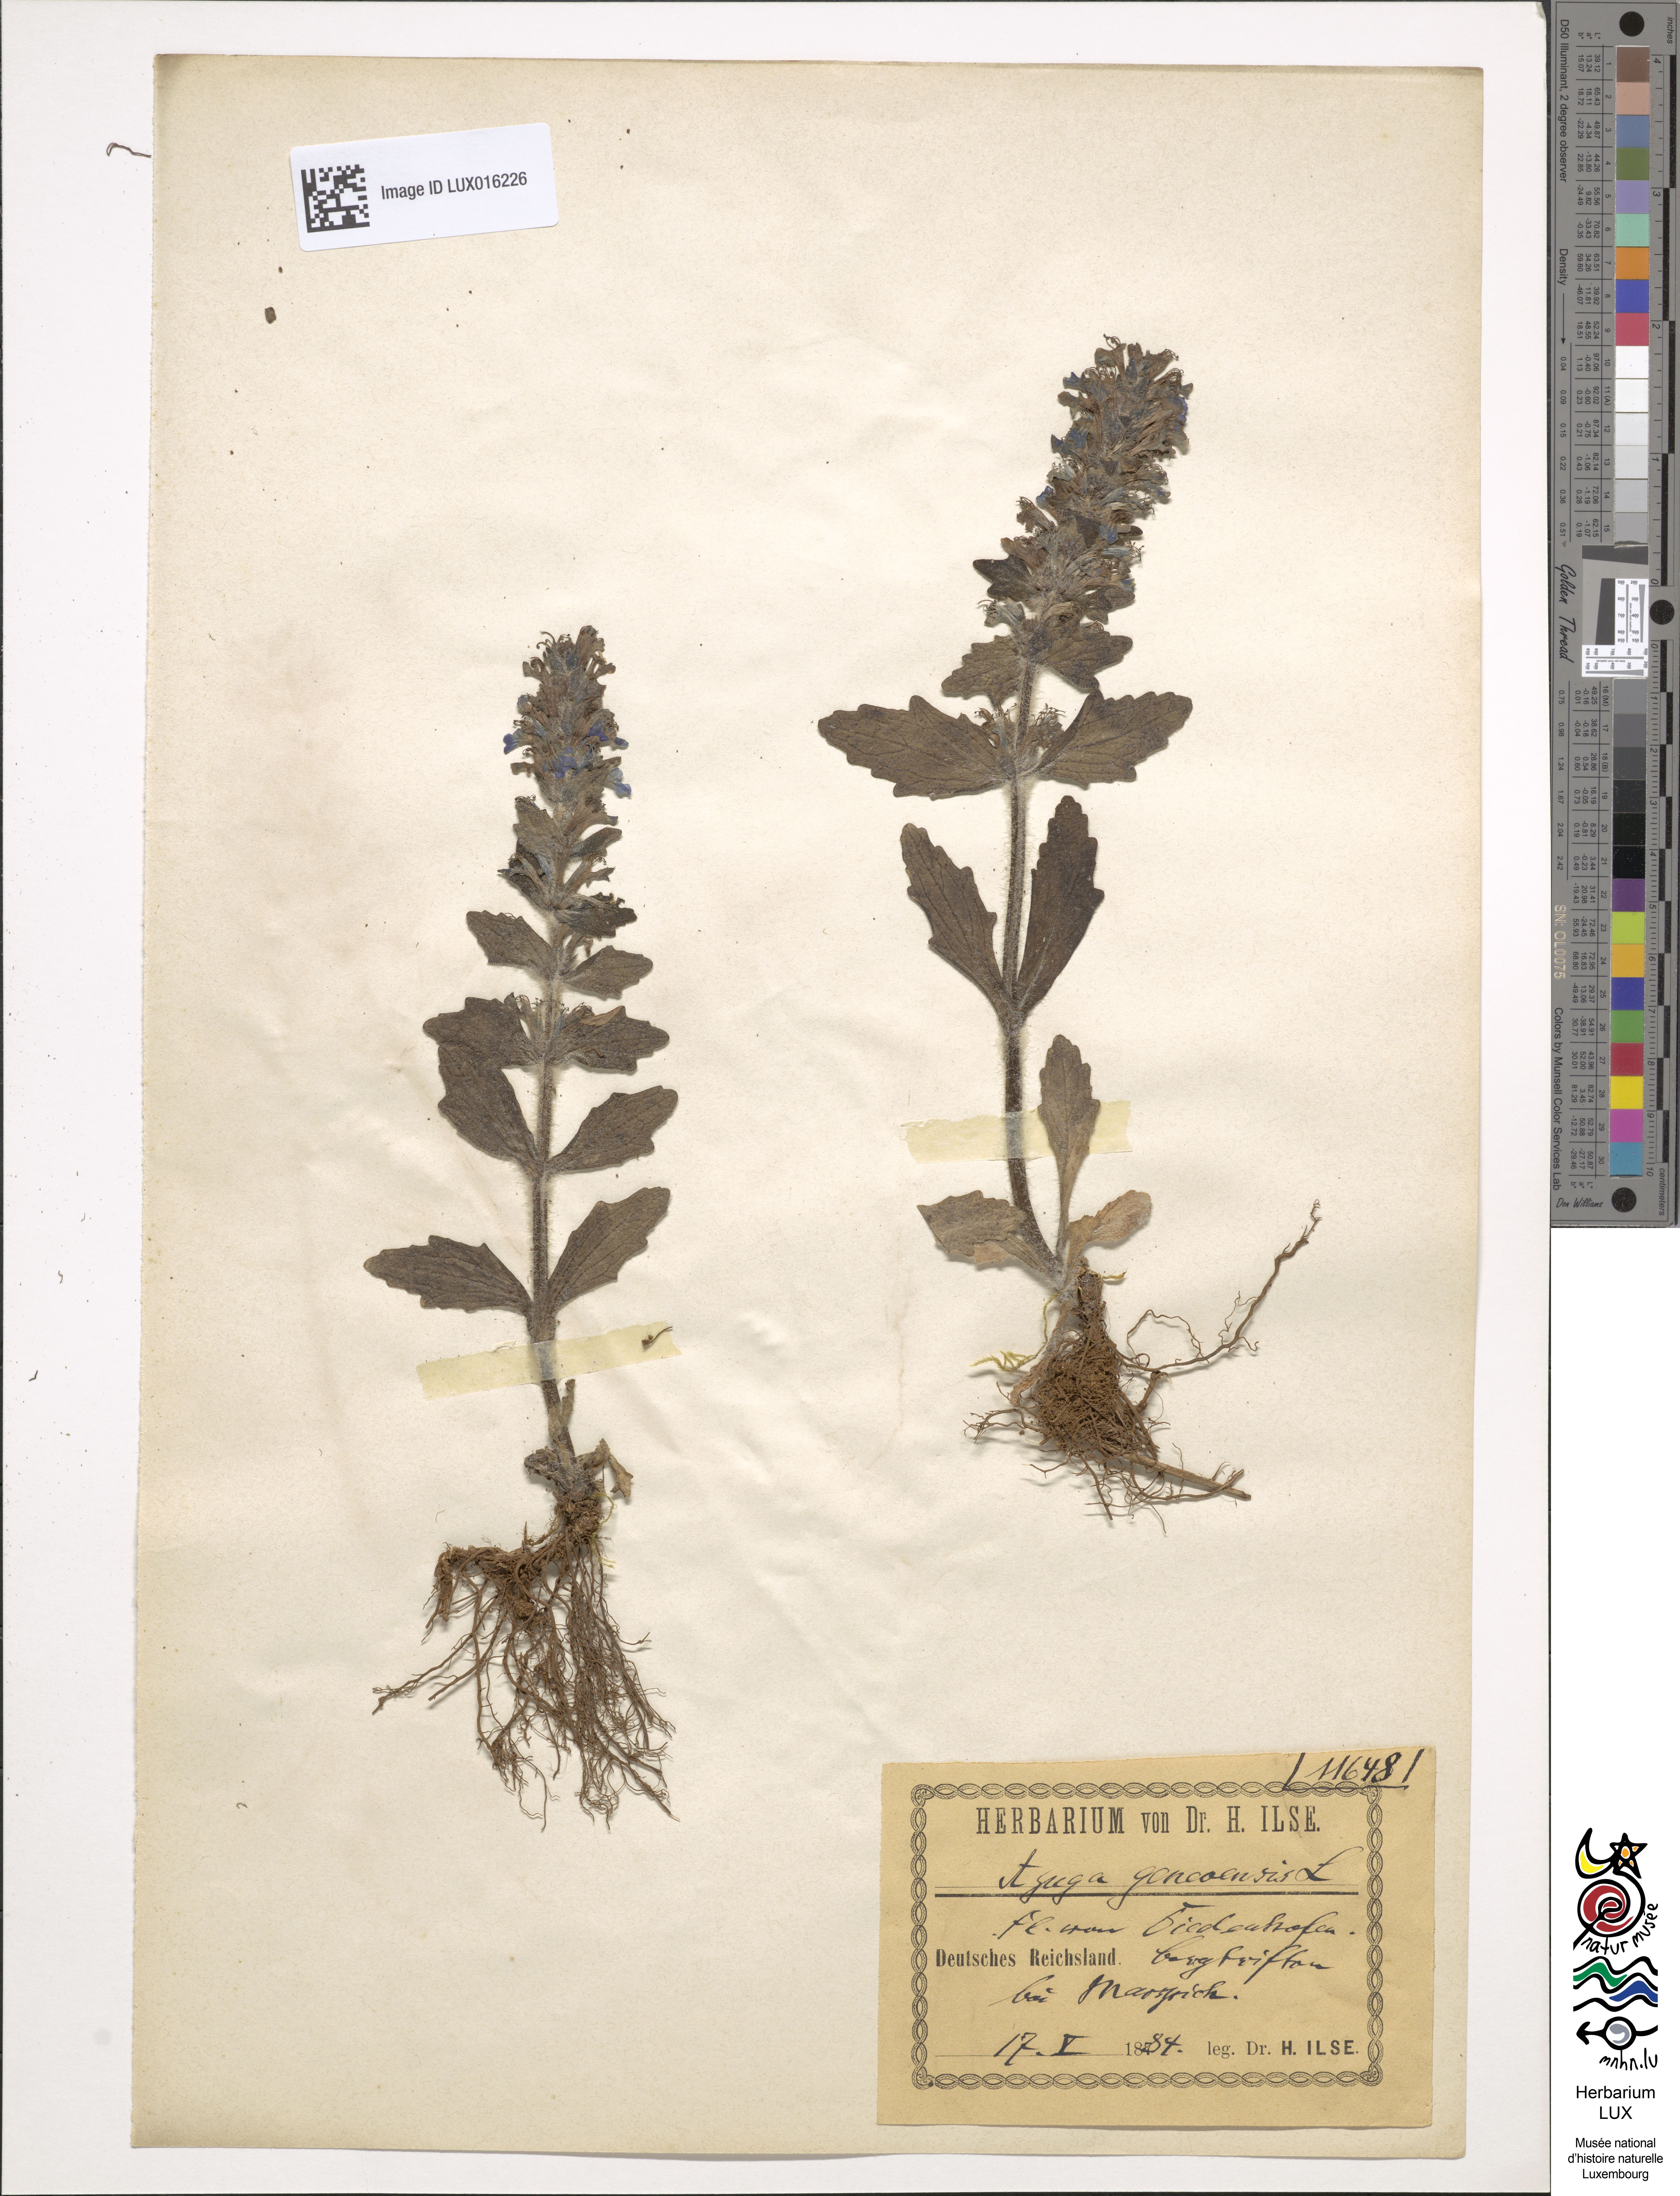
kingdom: Plantae
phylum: Tracheophyta
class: Magnoliopsida
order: Lamiales
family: Lamiaceae
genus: Ajuga
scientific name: Ajuga genevensis
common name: Blue bugle
